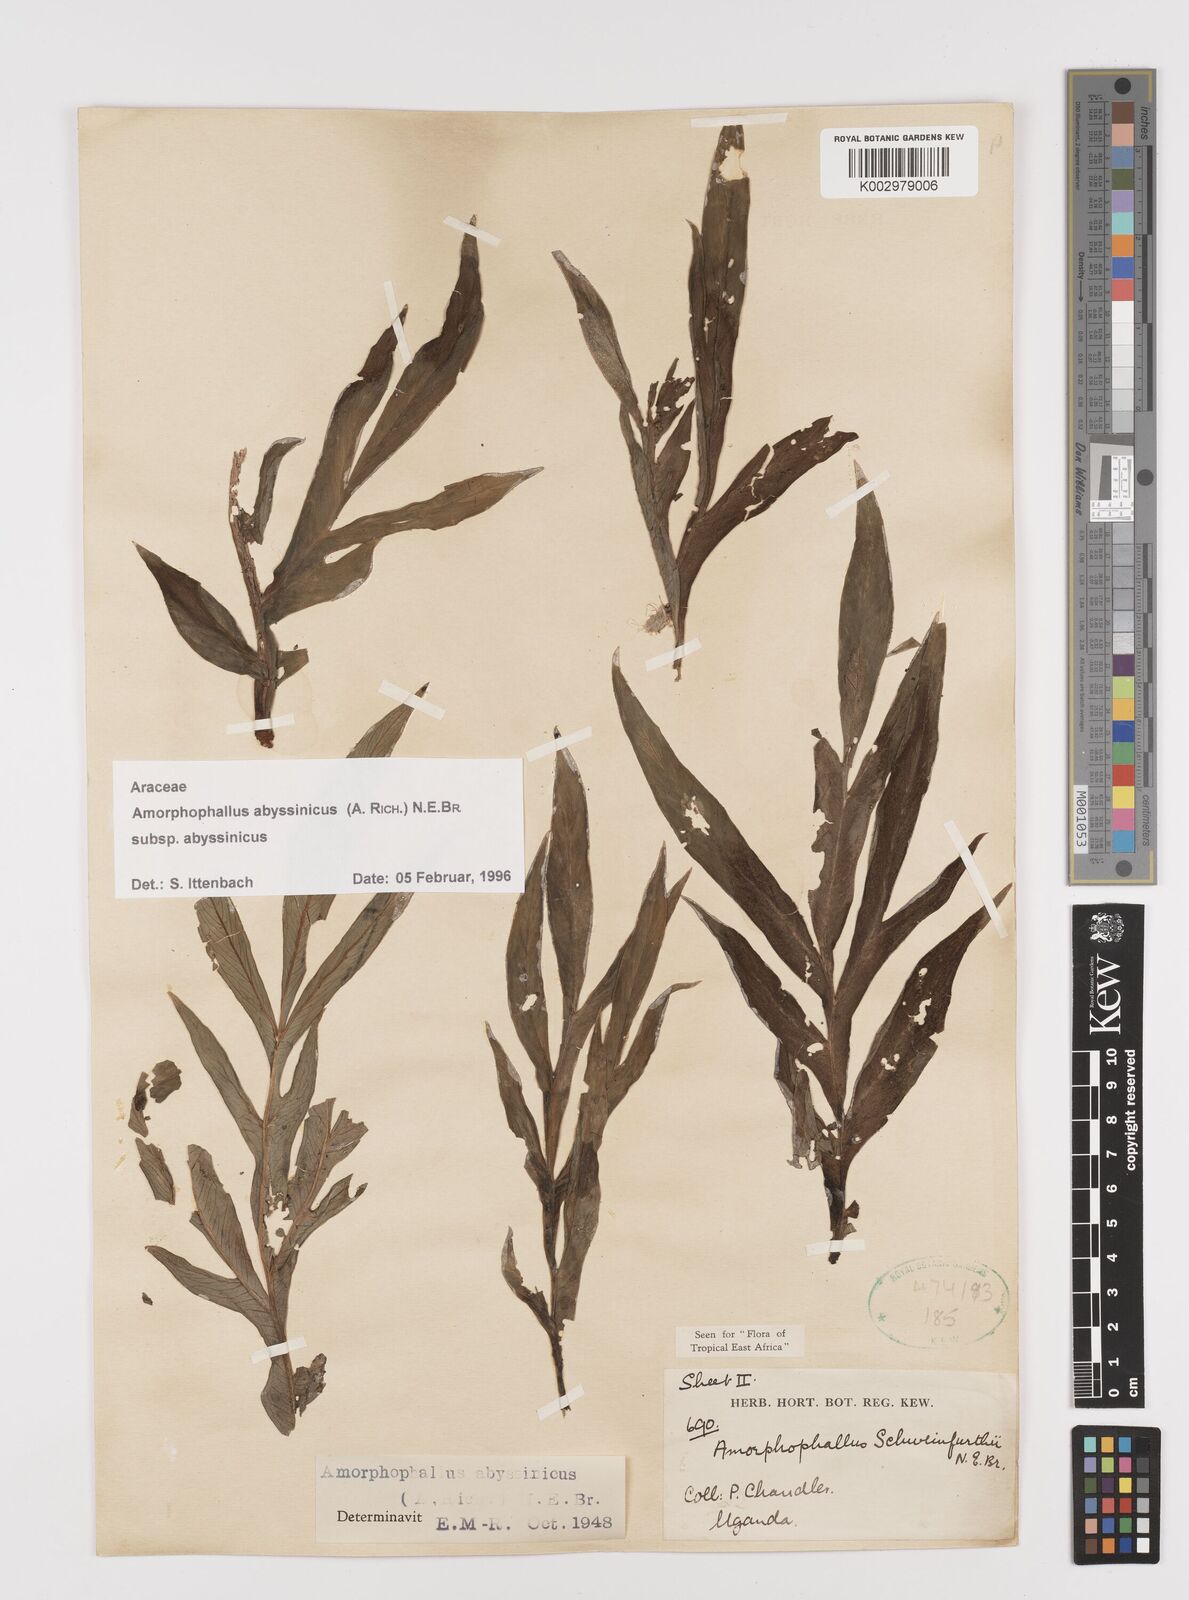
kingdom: Plantae
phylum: Tracheophyta
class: Liliopsida
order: Alismatales
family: Araceae
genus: Amorphophallus
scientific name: Amorphophallus abyssinicus
